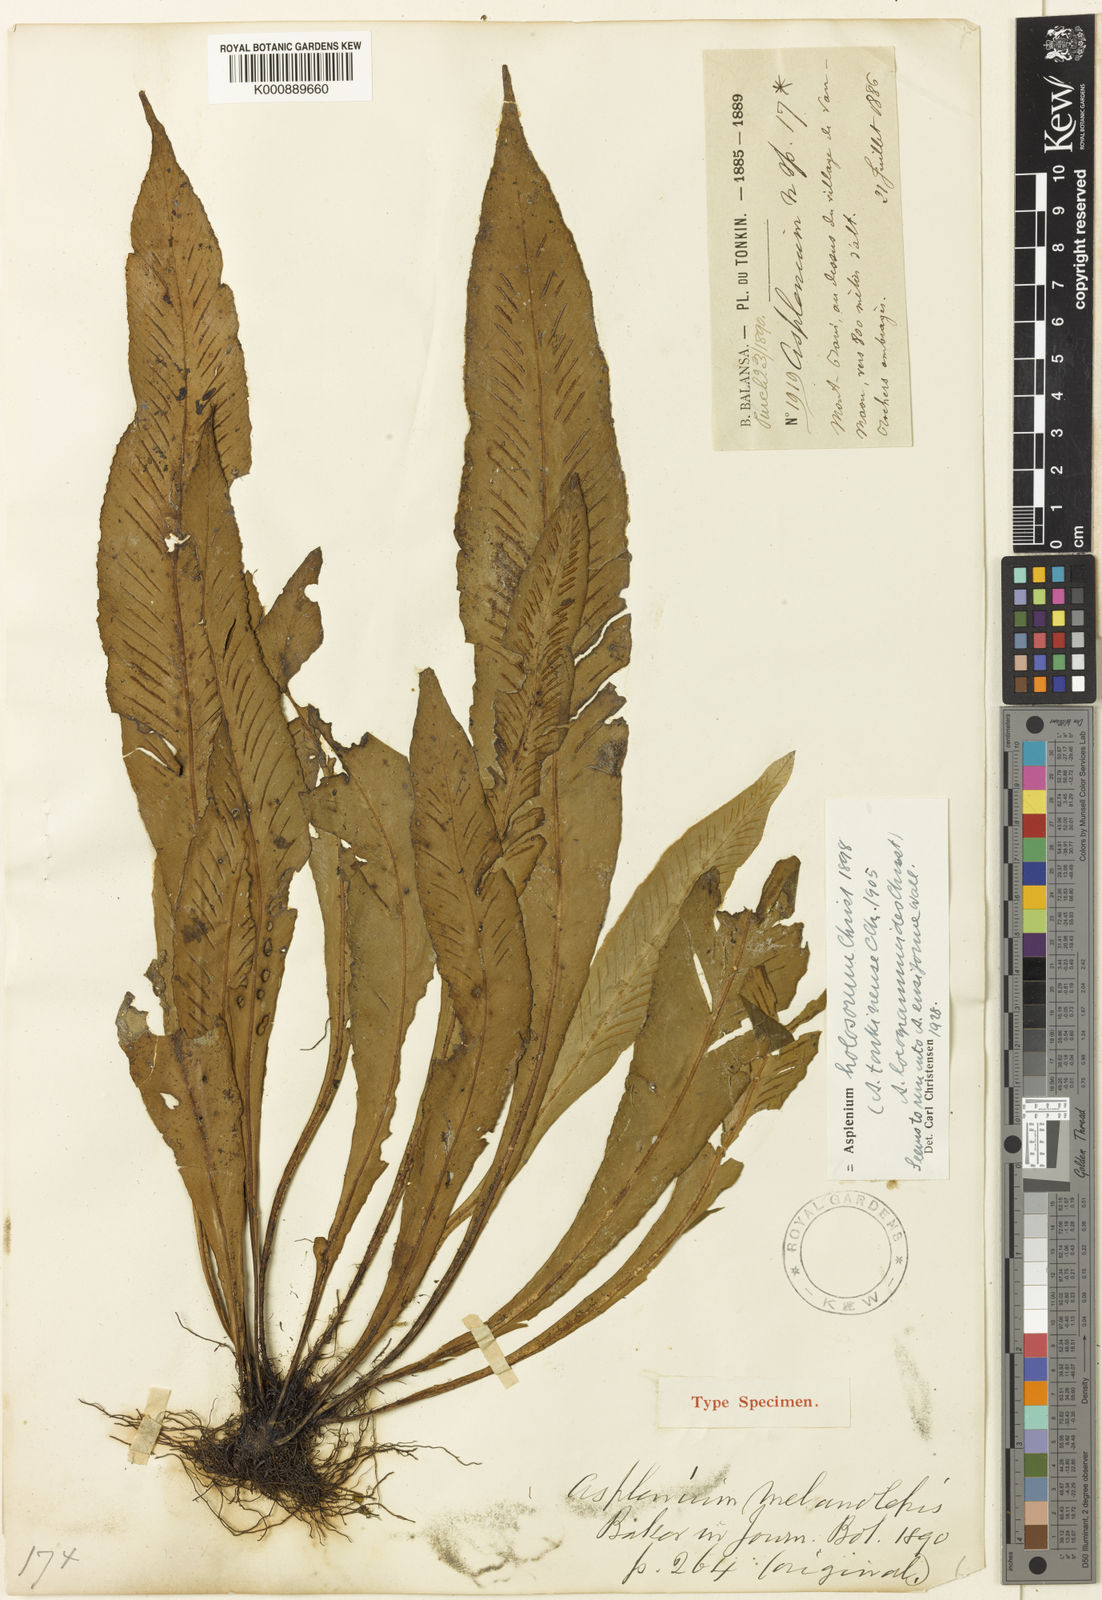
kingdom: Plantae
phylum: Tracheophyta
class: Polypodiopsida
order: Polypodiales
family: Aspleniaceae
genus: Asplenium
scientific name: Asplenium ensiforme
